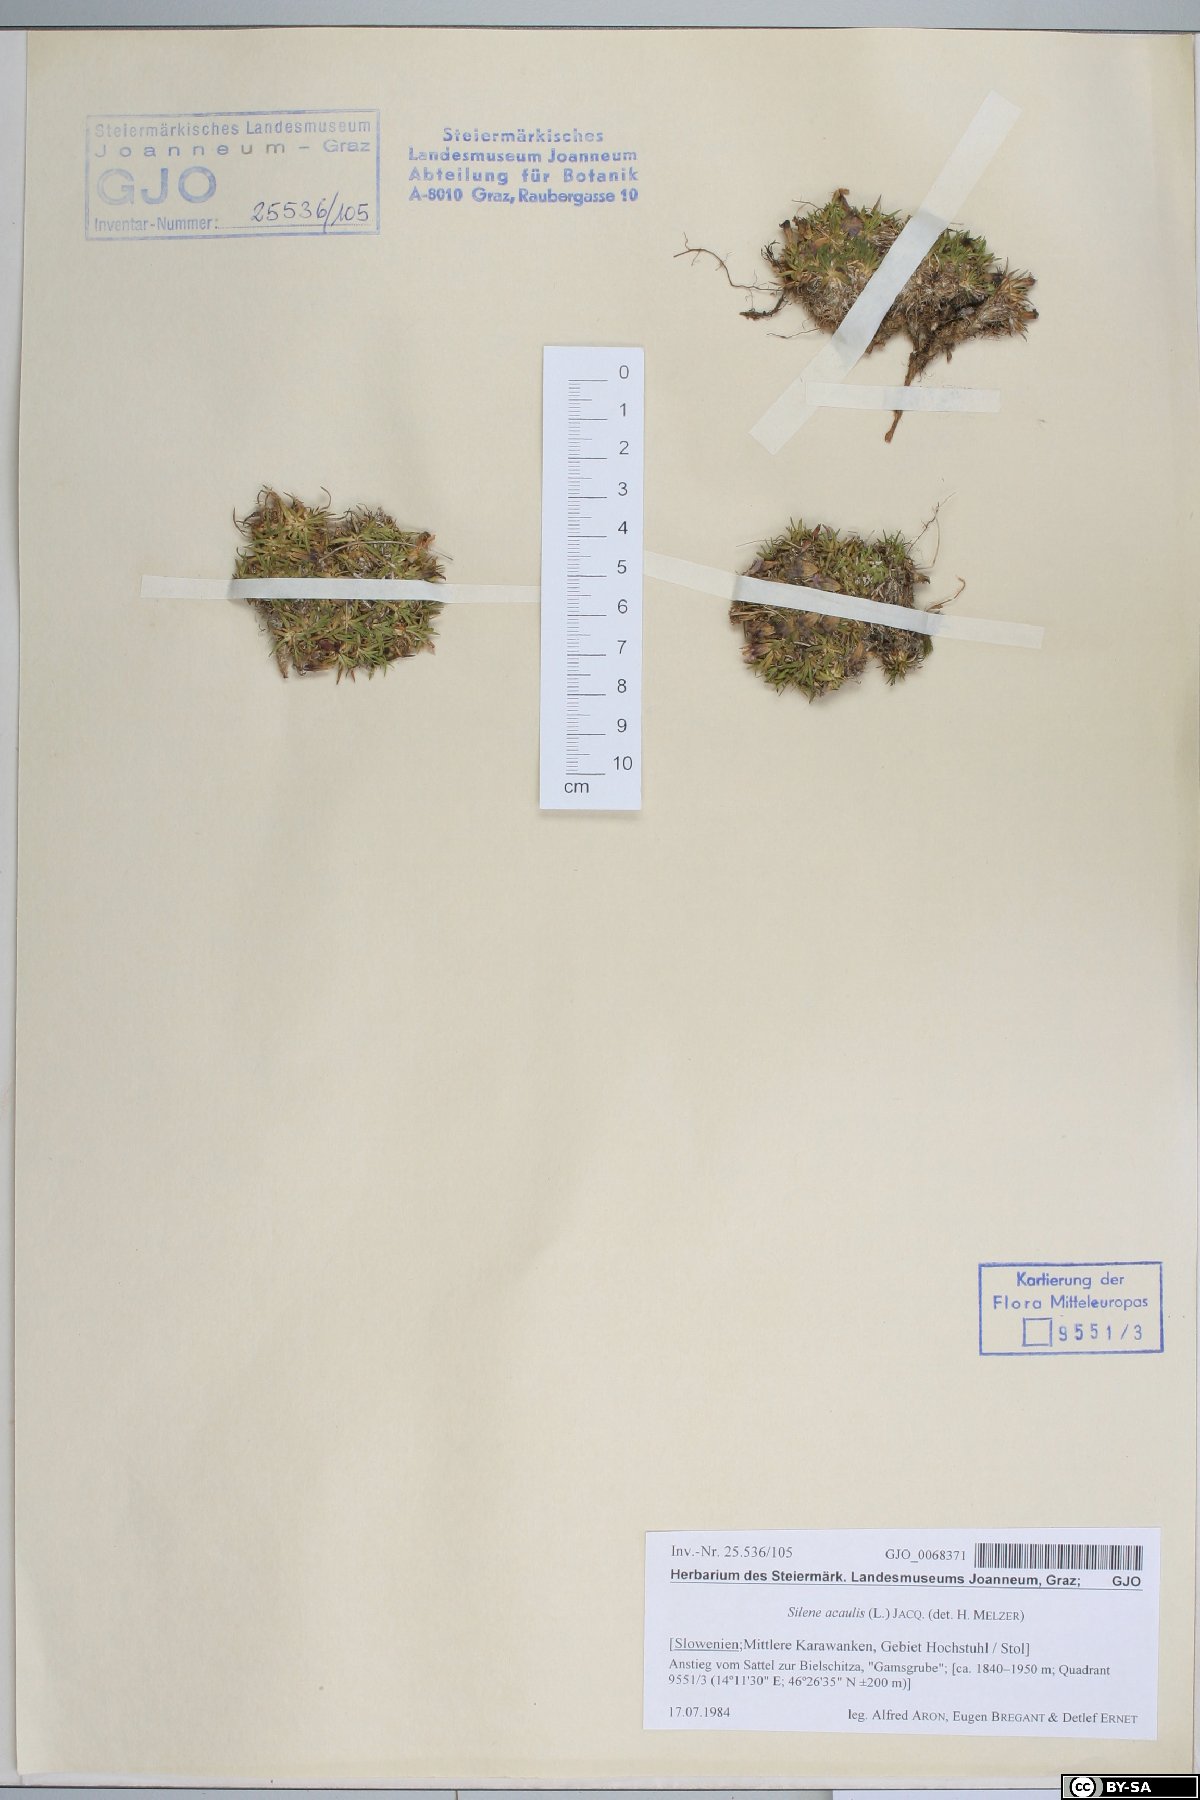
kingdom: Plantae
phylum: Tracheophyta
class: Magnoliopsida
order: Caryophyllales
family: Caryophyllaceae
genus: Silene
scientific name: Silene acaulis
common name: Moss campion
